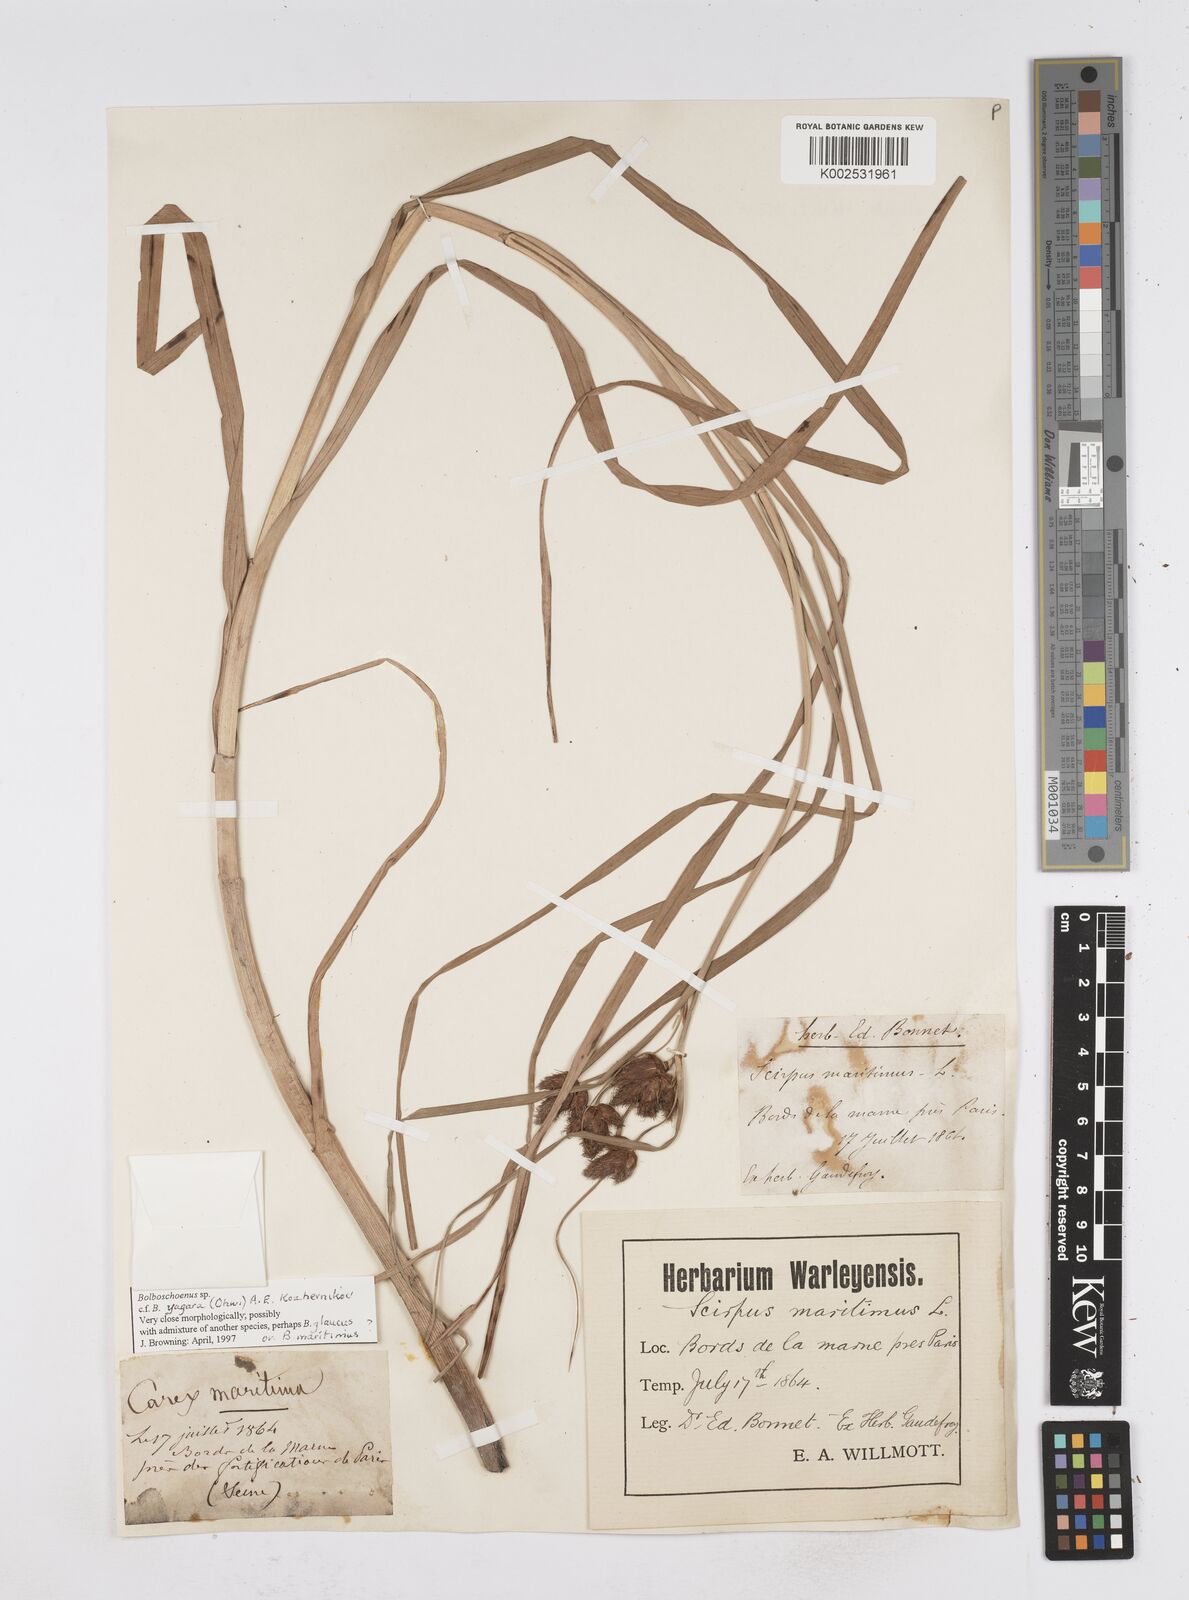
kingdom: Plantae
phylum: Tracheophyta
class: Liliopsida
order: Poales
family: Cyperaceae
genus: Bolboschoenus
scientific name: Bolboschoenus maritimus
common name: Sea club-rush
